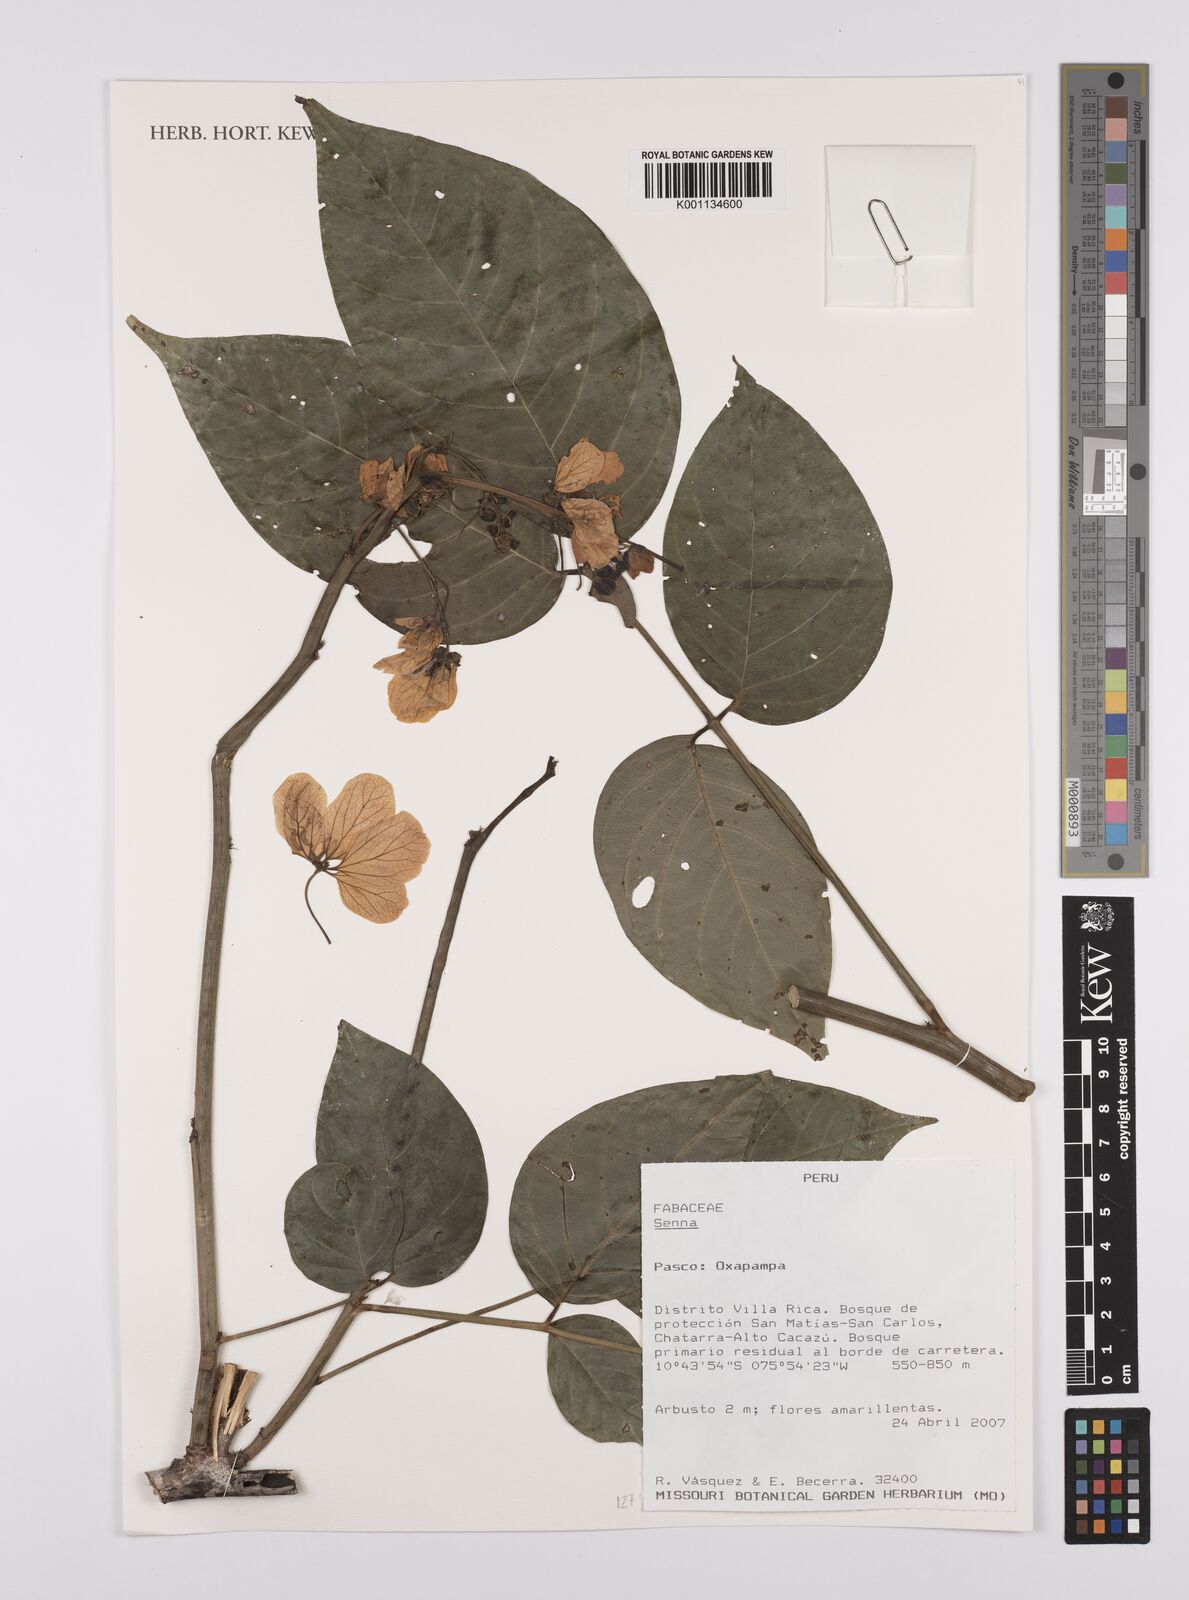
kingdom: Plantae
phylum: Tracheophyta
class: Magnoliopsida
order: Fabales
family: Fabaceae
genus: Senna
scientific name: Senna
